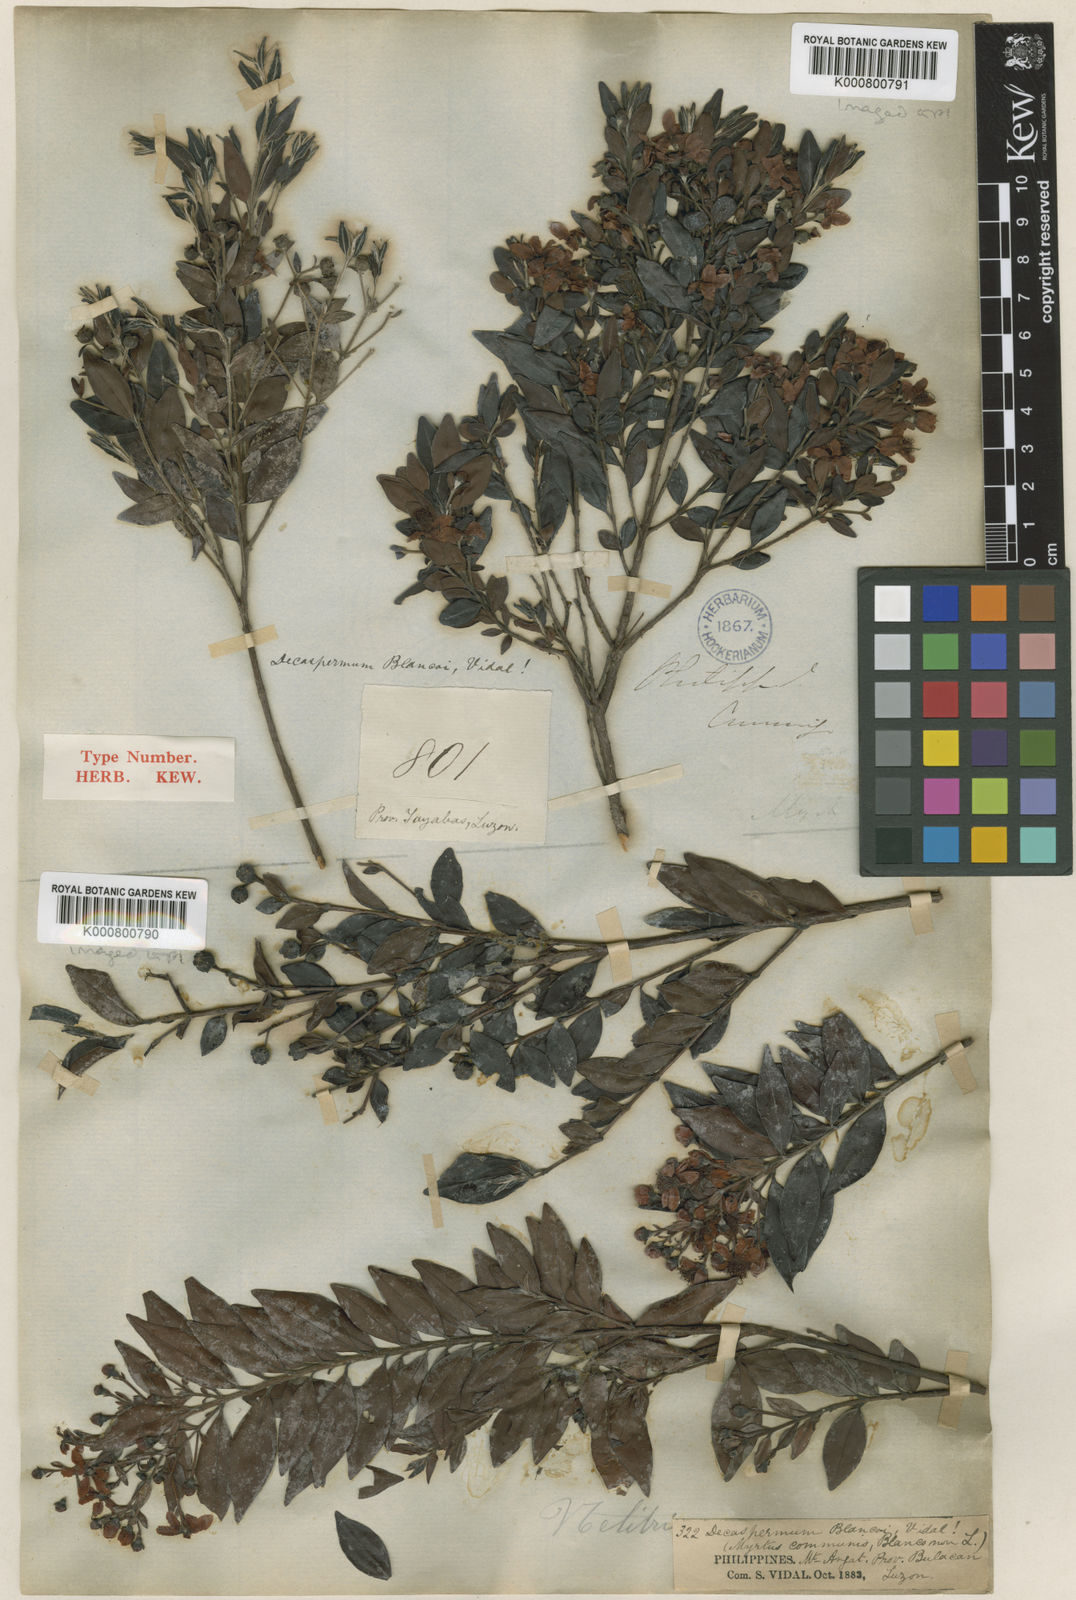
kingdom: Plantae
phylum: Tracheophyta
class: Magnoliopsida
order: Myrtales
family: Myrtaceae
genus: Decaspermum
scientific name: Decaspermum blancoi
